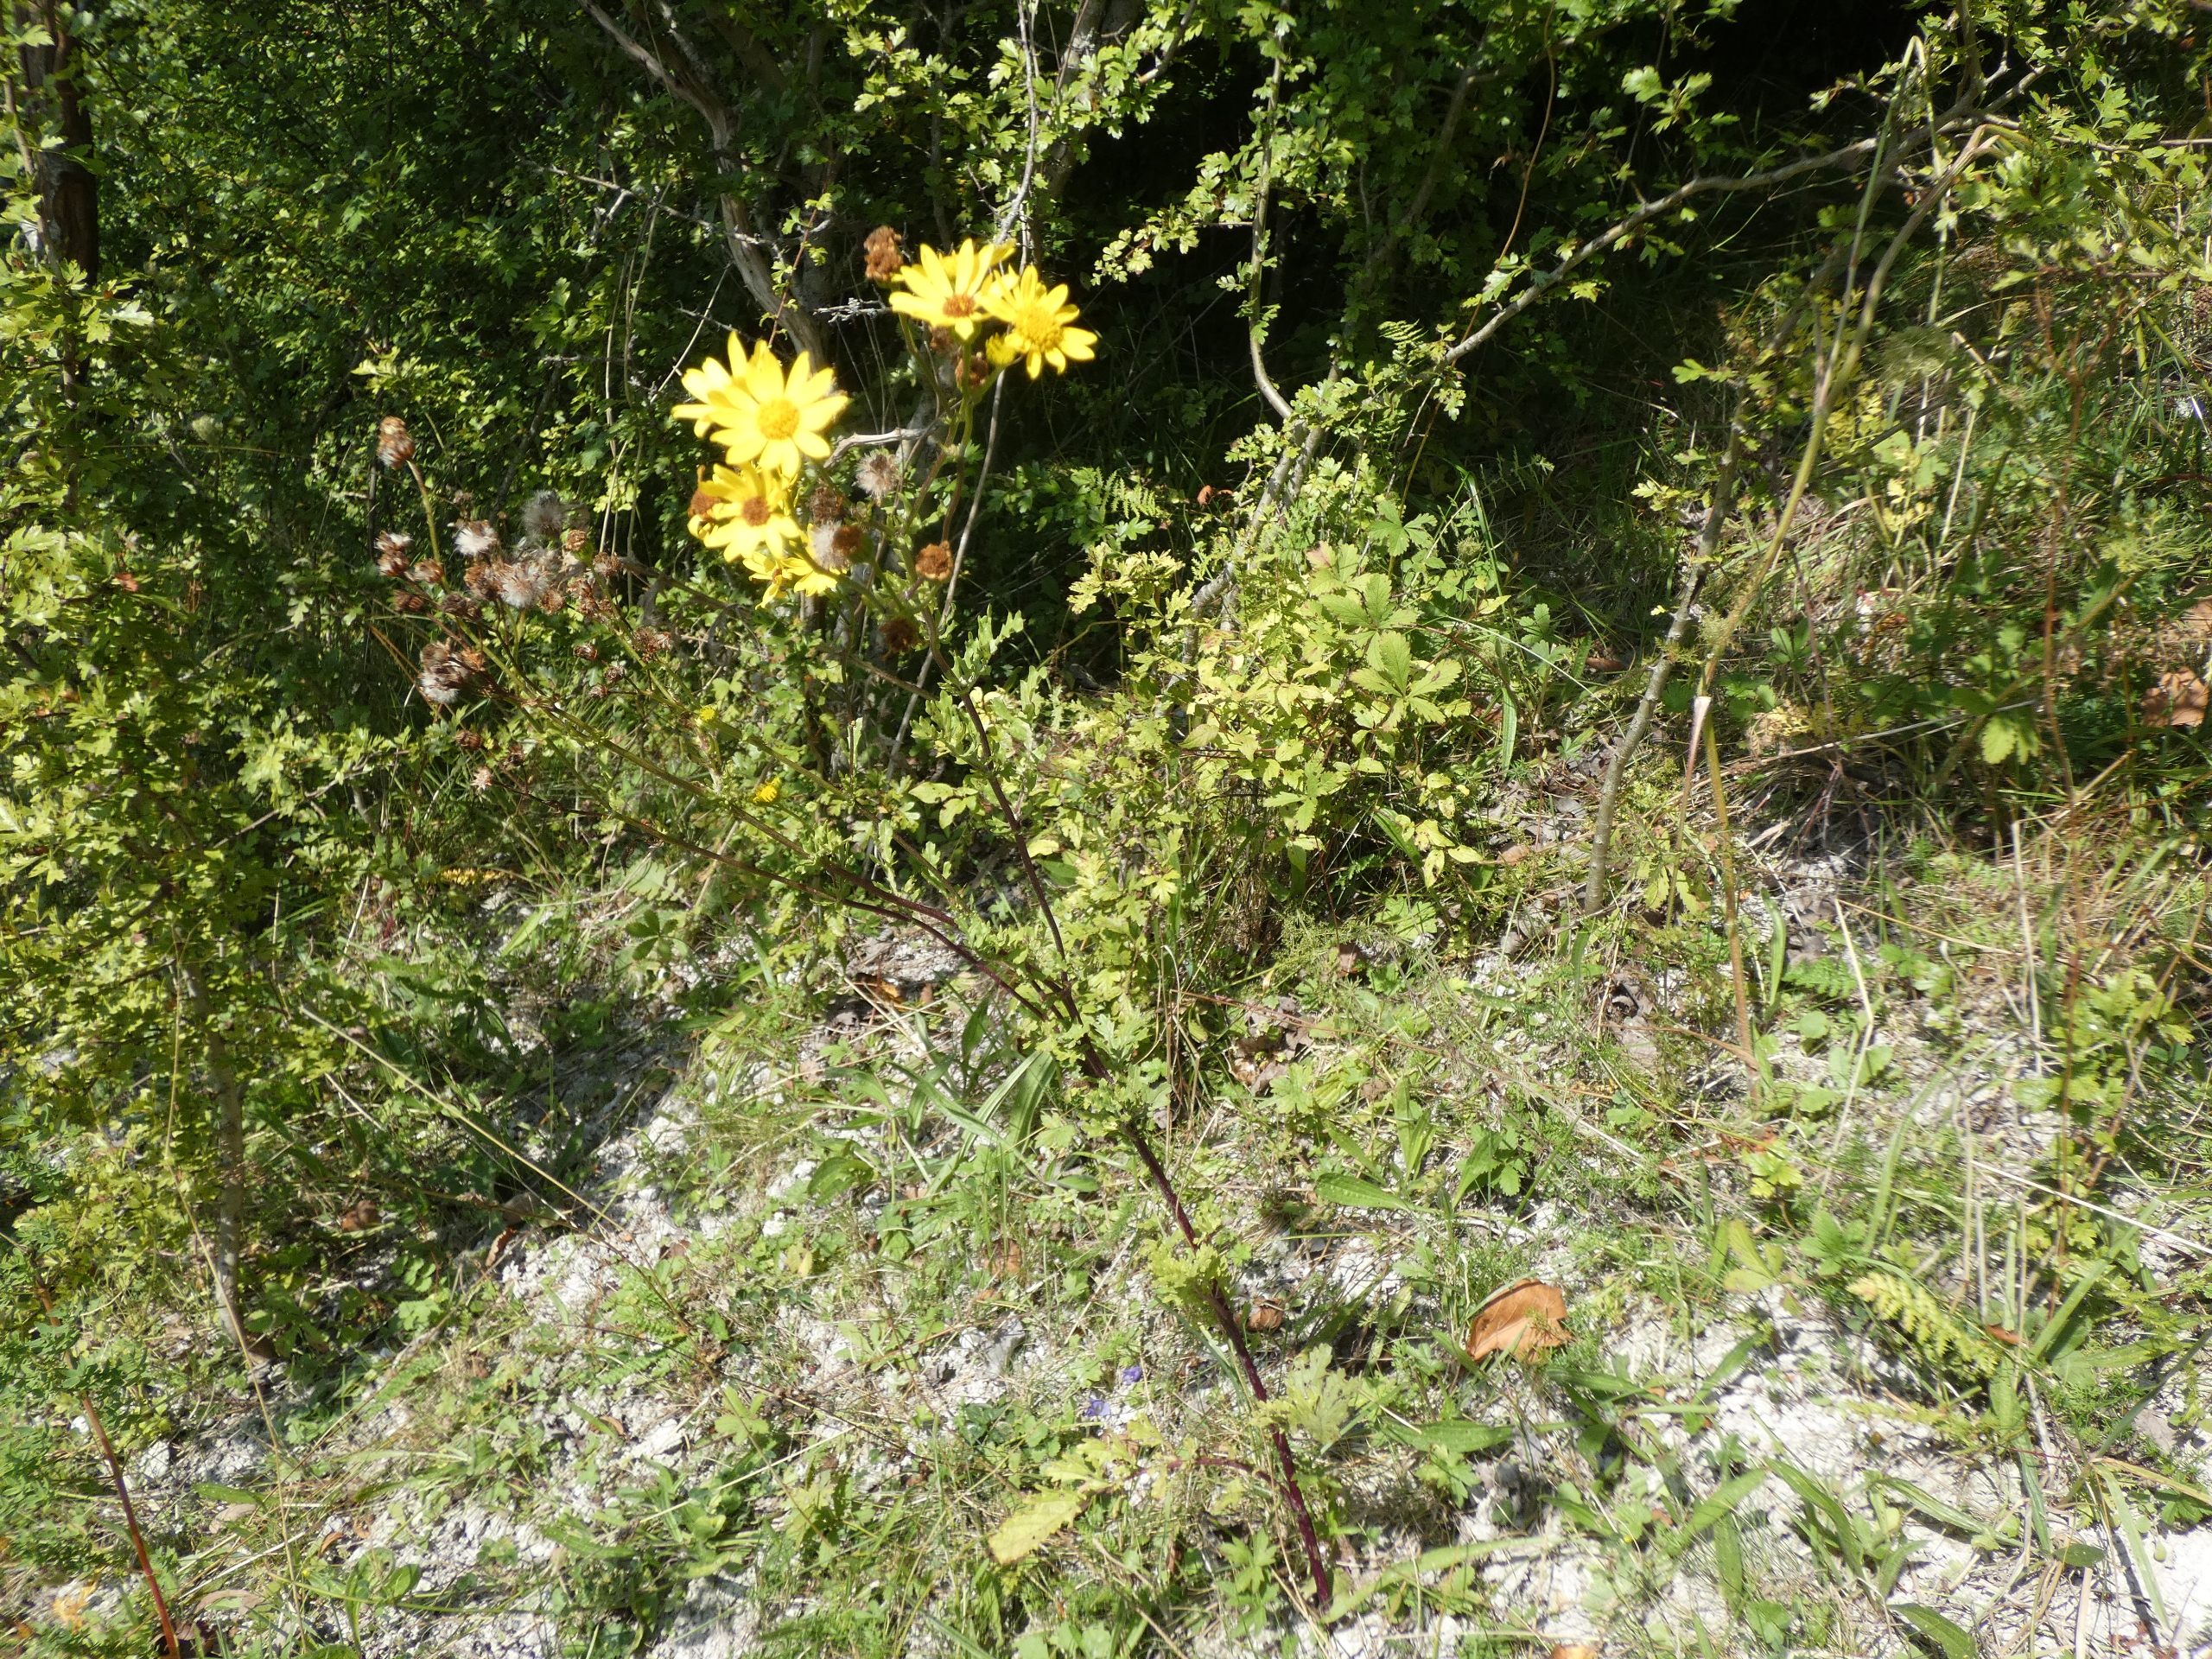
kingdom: Plantae
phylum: Tracheophyta
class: Magnoliopsida
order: Asterales
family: Asteraceae
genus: Jacobaea
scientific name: Jacobaea vulgaris
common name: Eng-brandbæger
